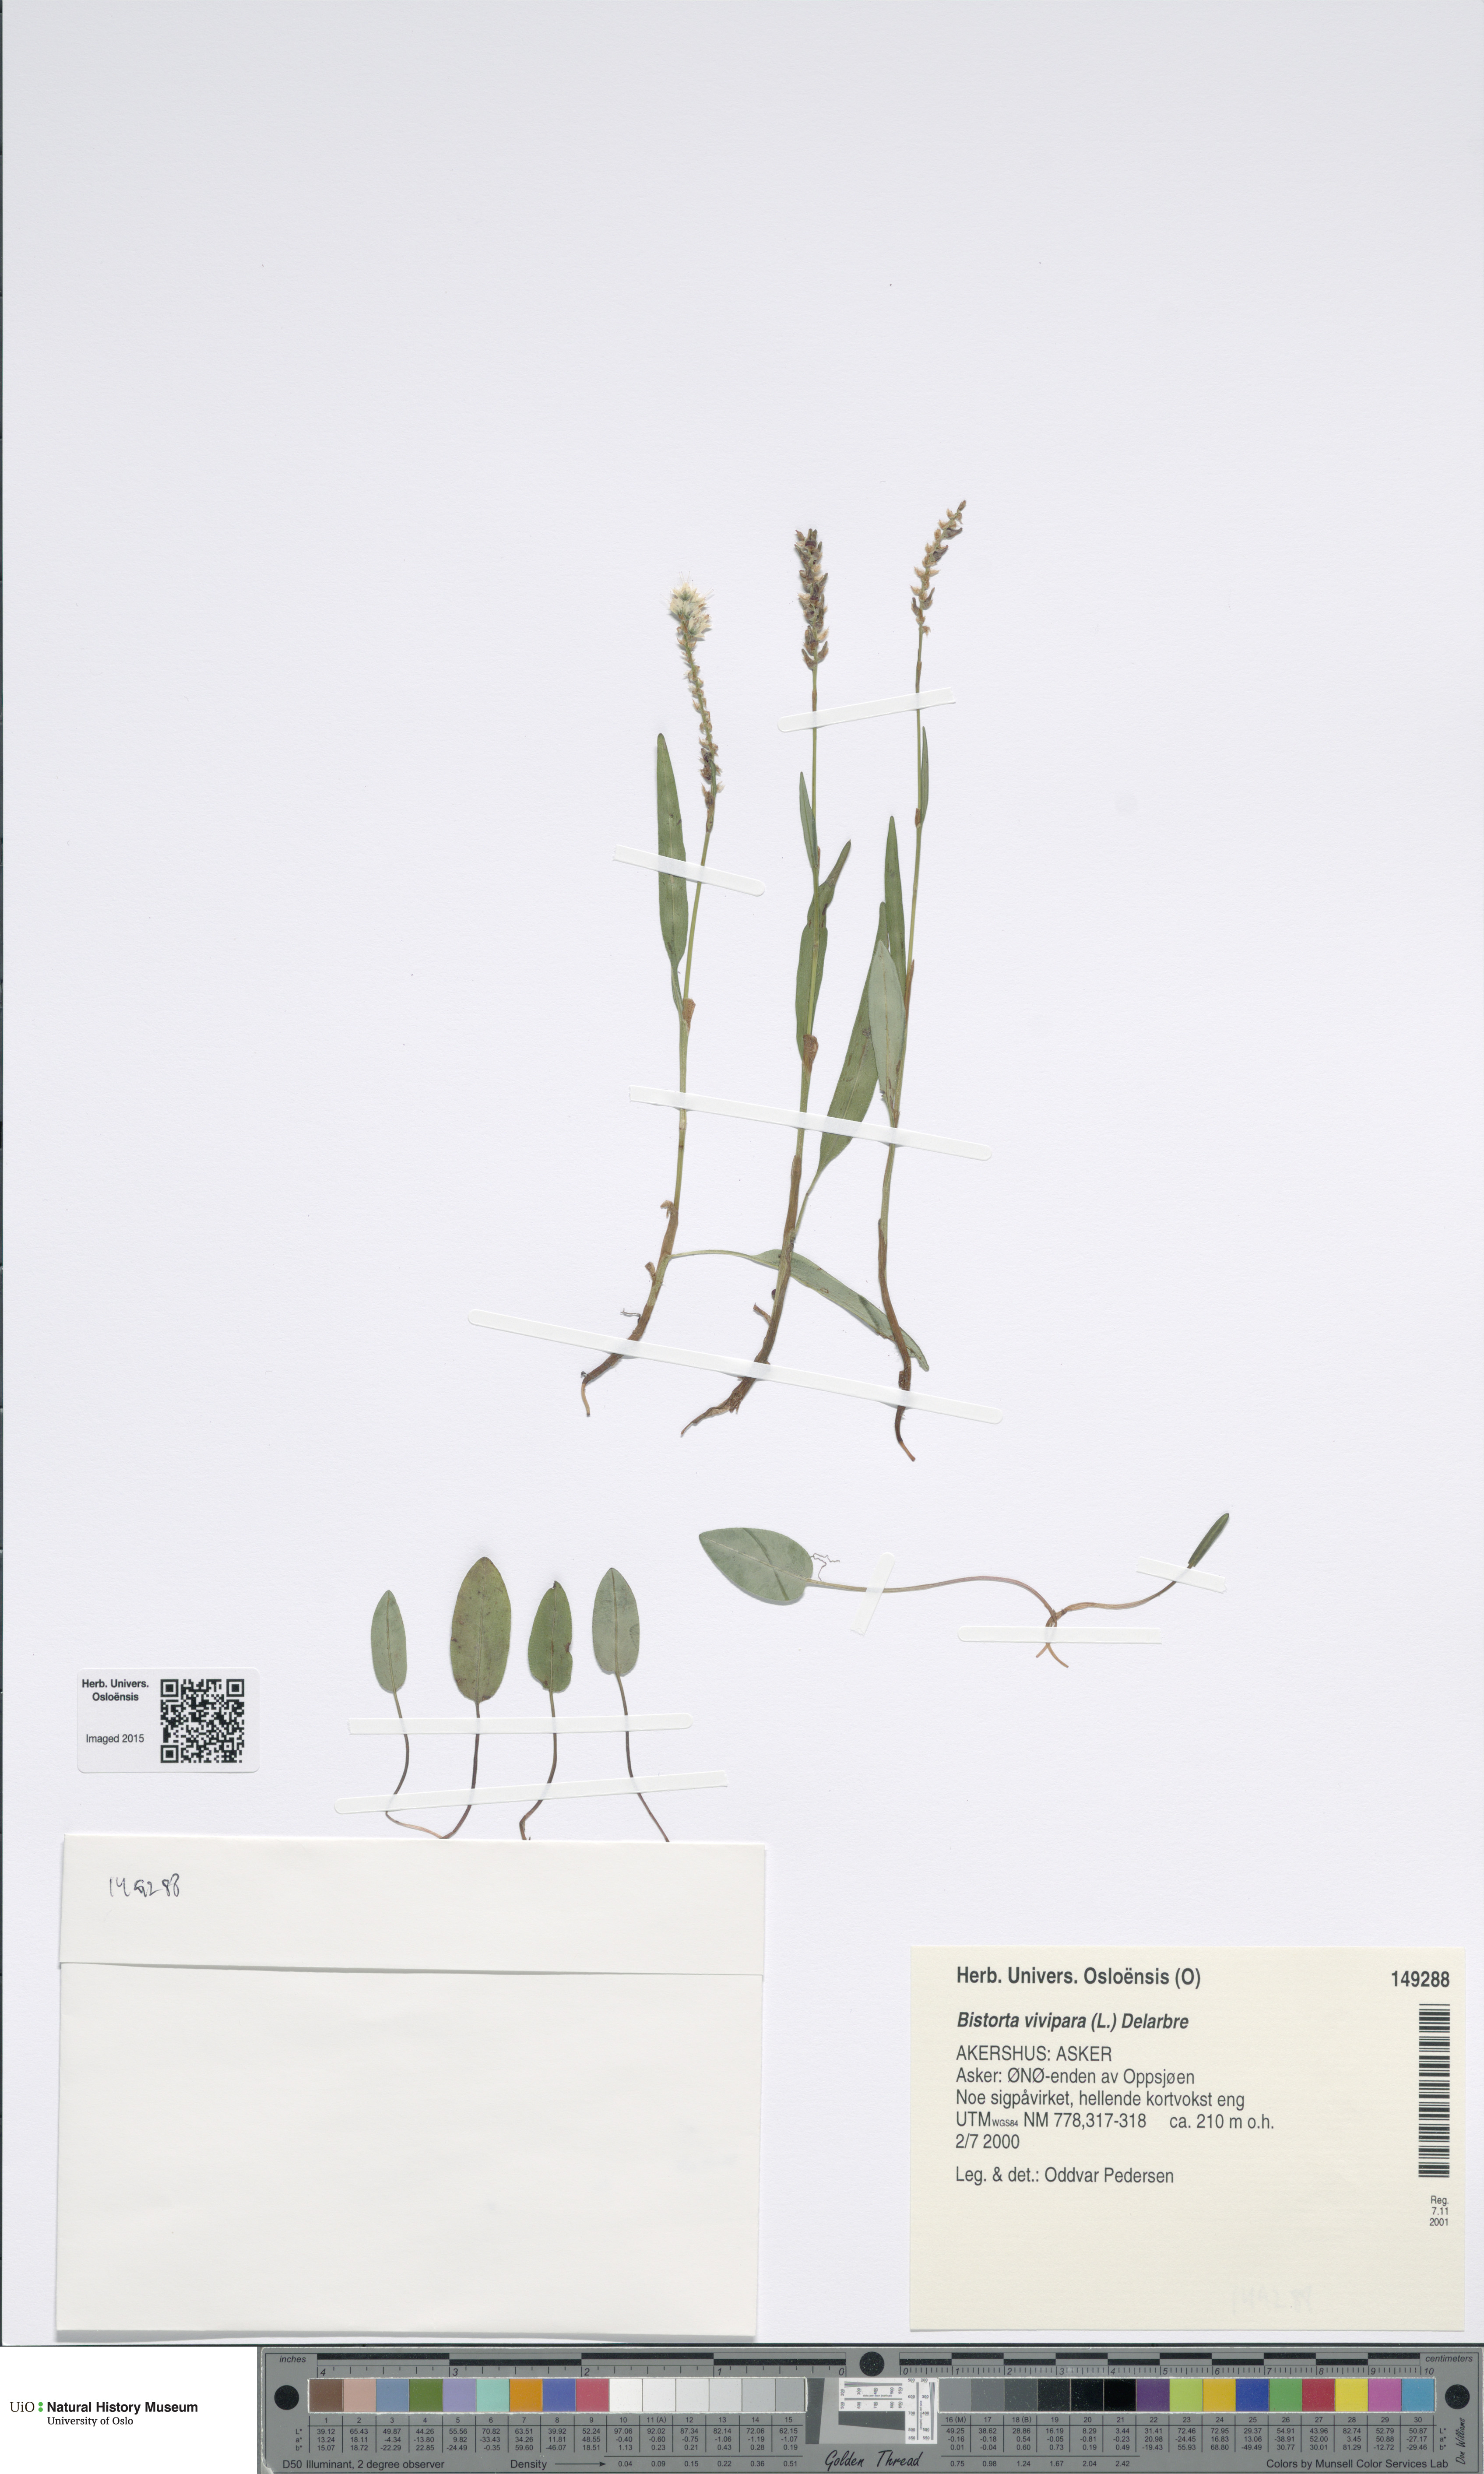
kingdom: Plantae
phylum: Tracheophyta
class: Magnoliopsida
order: Caryophyllales
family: Polygonaceae
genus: Bistorta
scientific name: Bistorta vivipara
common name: Alpine bistort
